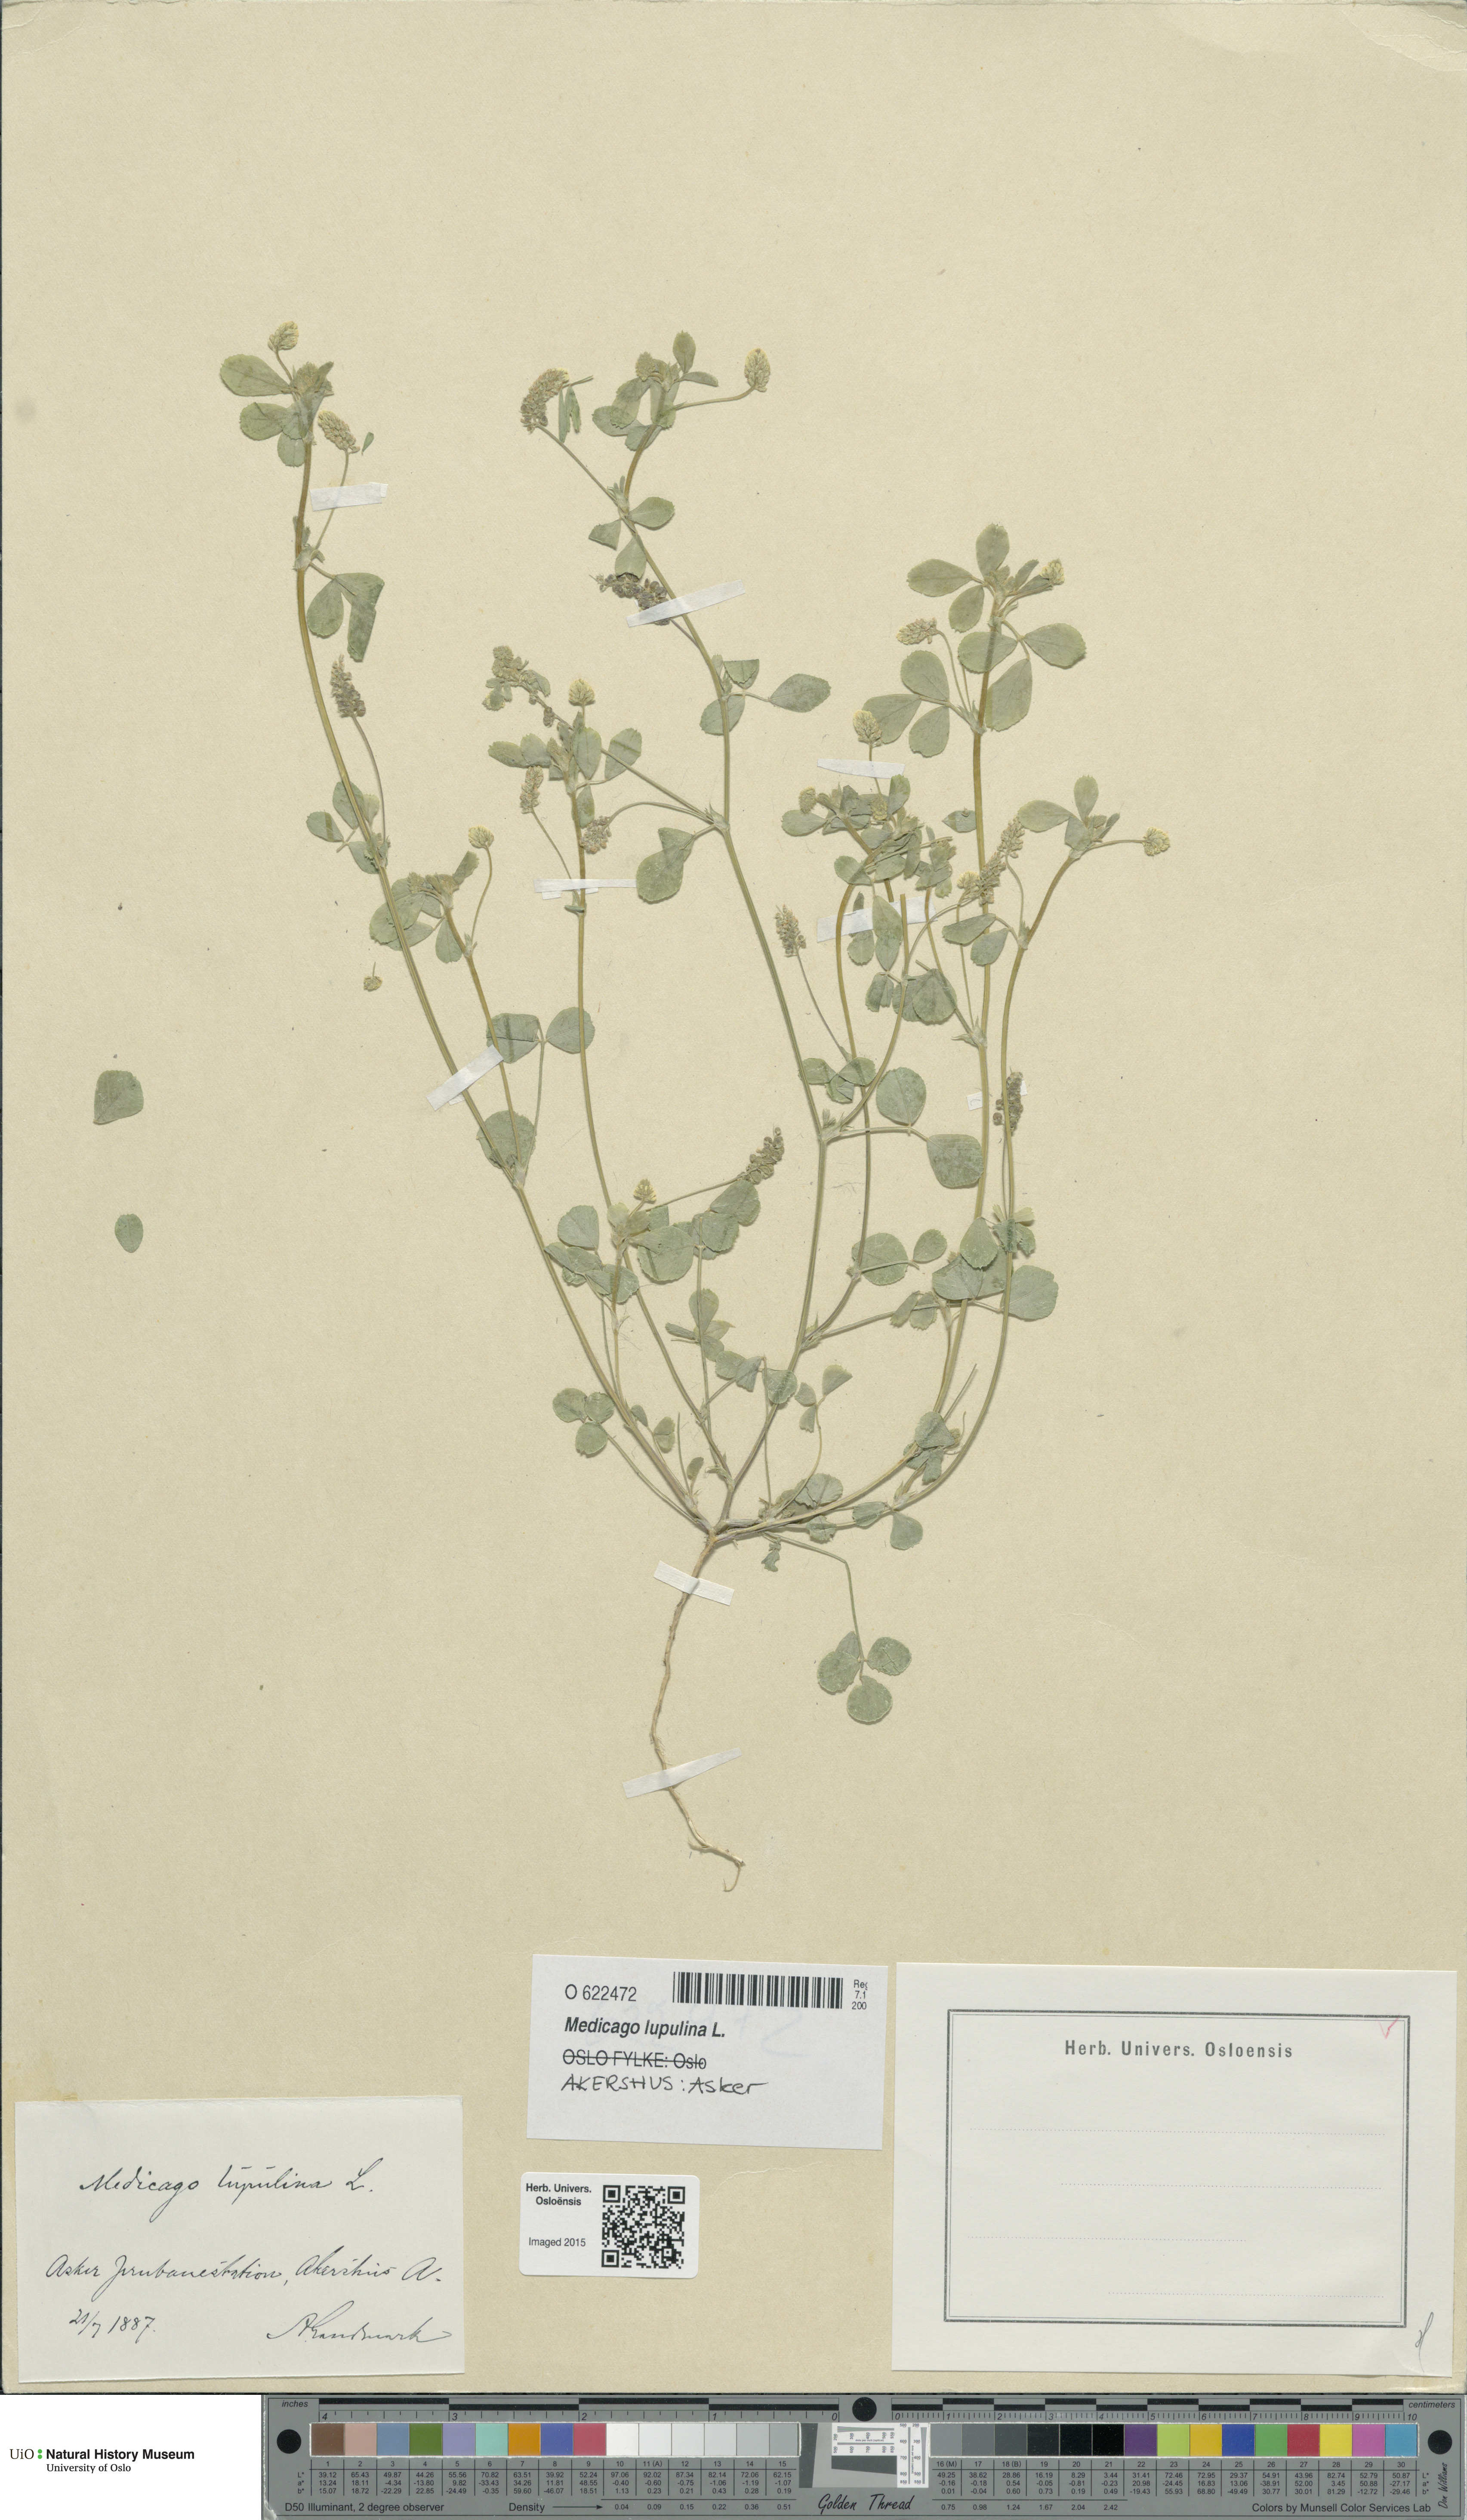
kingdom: Plantae
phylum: Tracheophyta
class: Magnoliopsida
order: Fabales
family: Fabaceae
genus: Medicago
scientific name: Medicago lupulina
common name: Black medick
